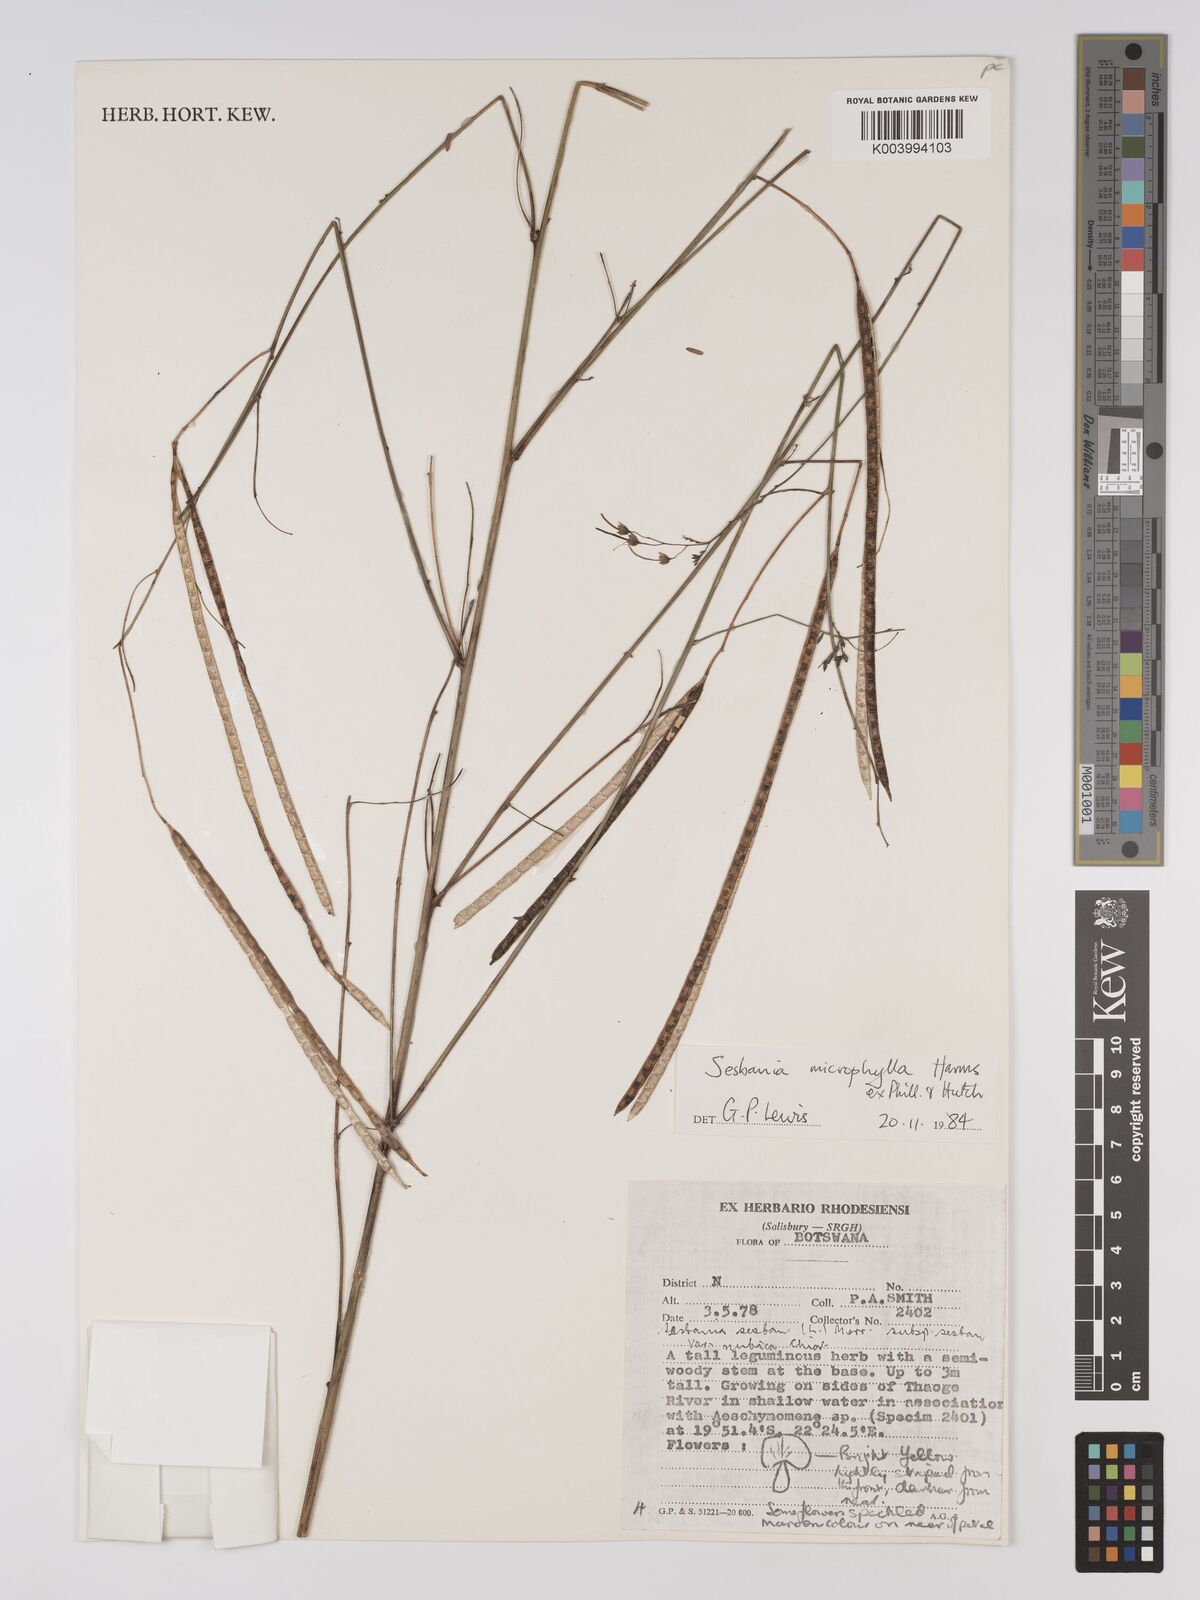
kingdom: Plantae
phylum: Tracheophyta
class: Magnoliopsida
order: Fabales
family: Fabaceae
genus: Sesbania
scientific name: Sesbania microphylla
